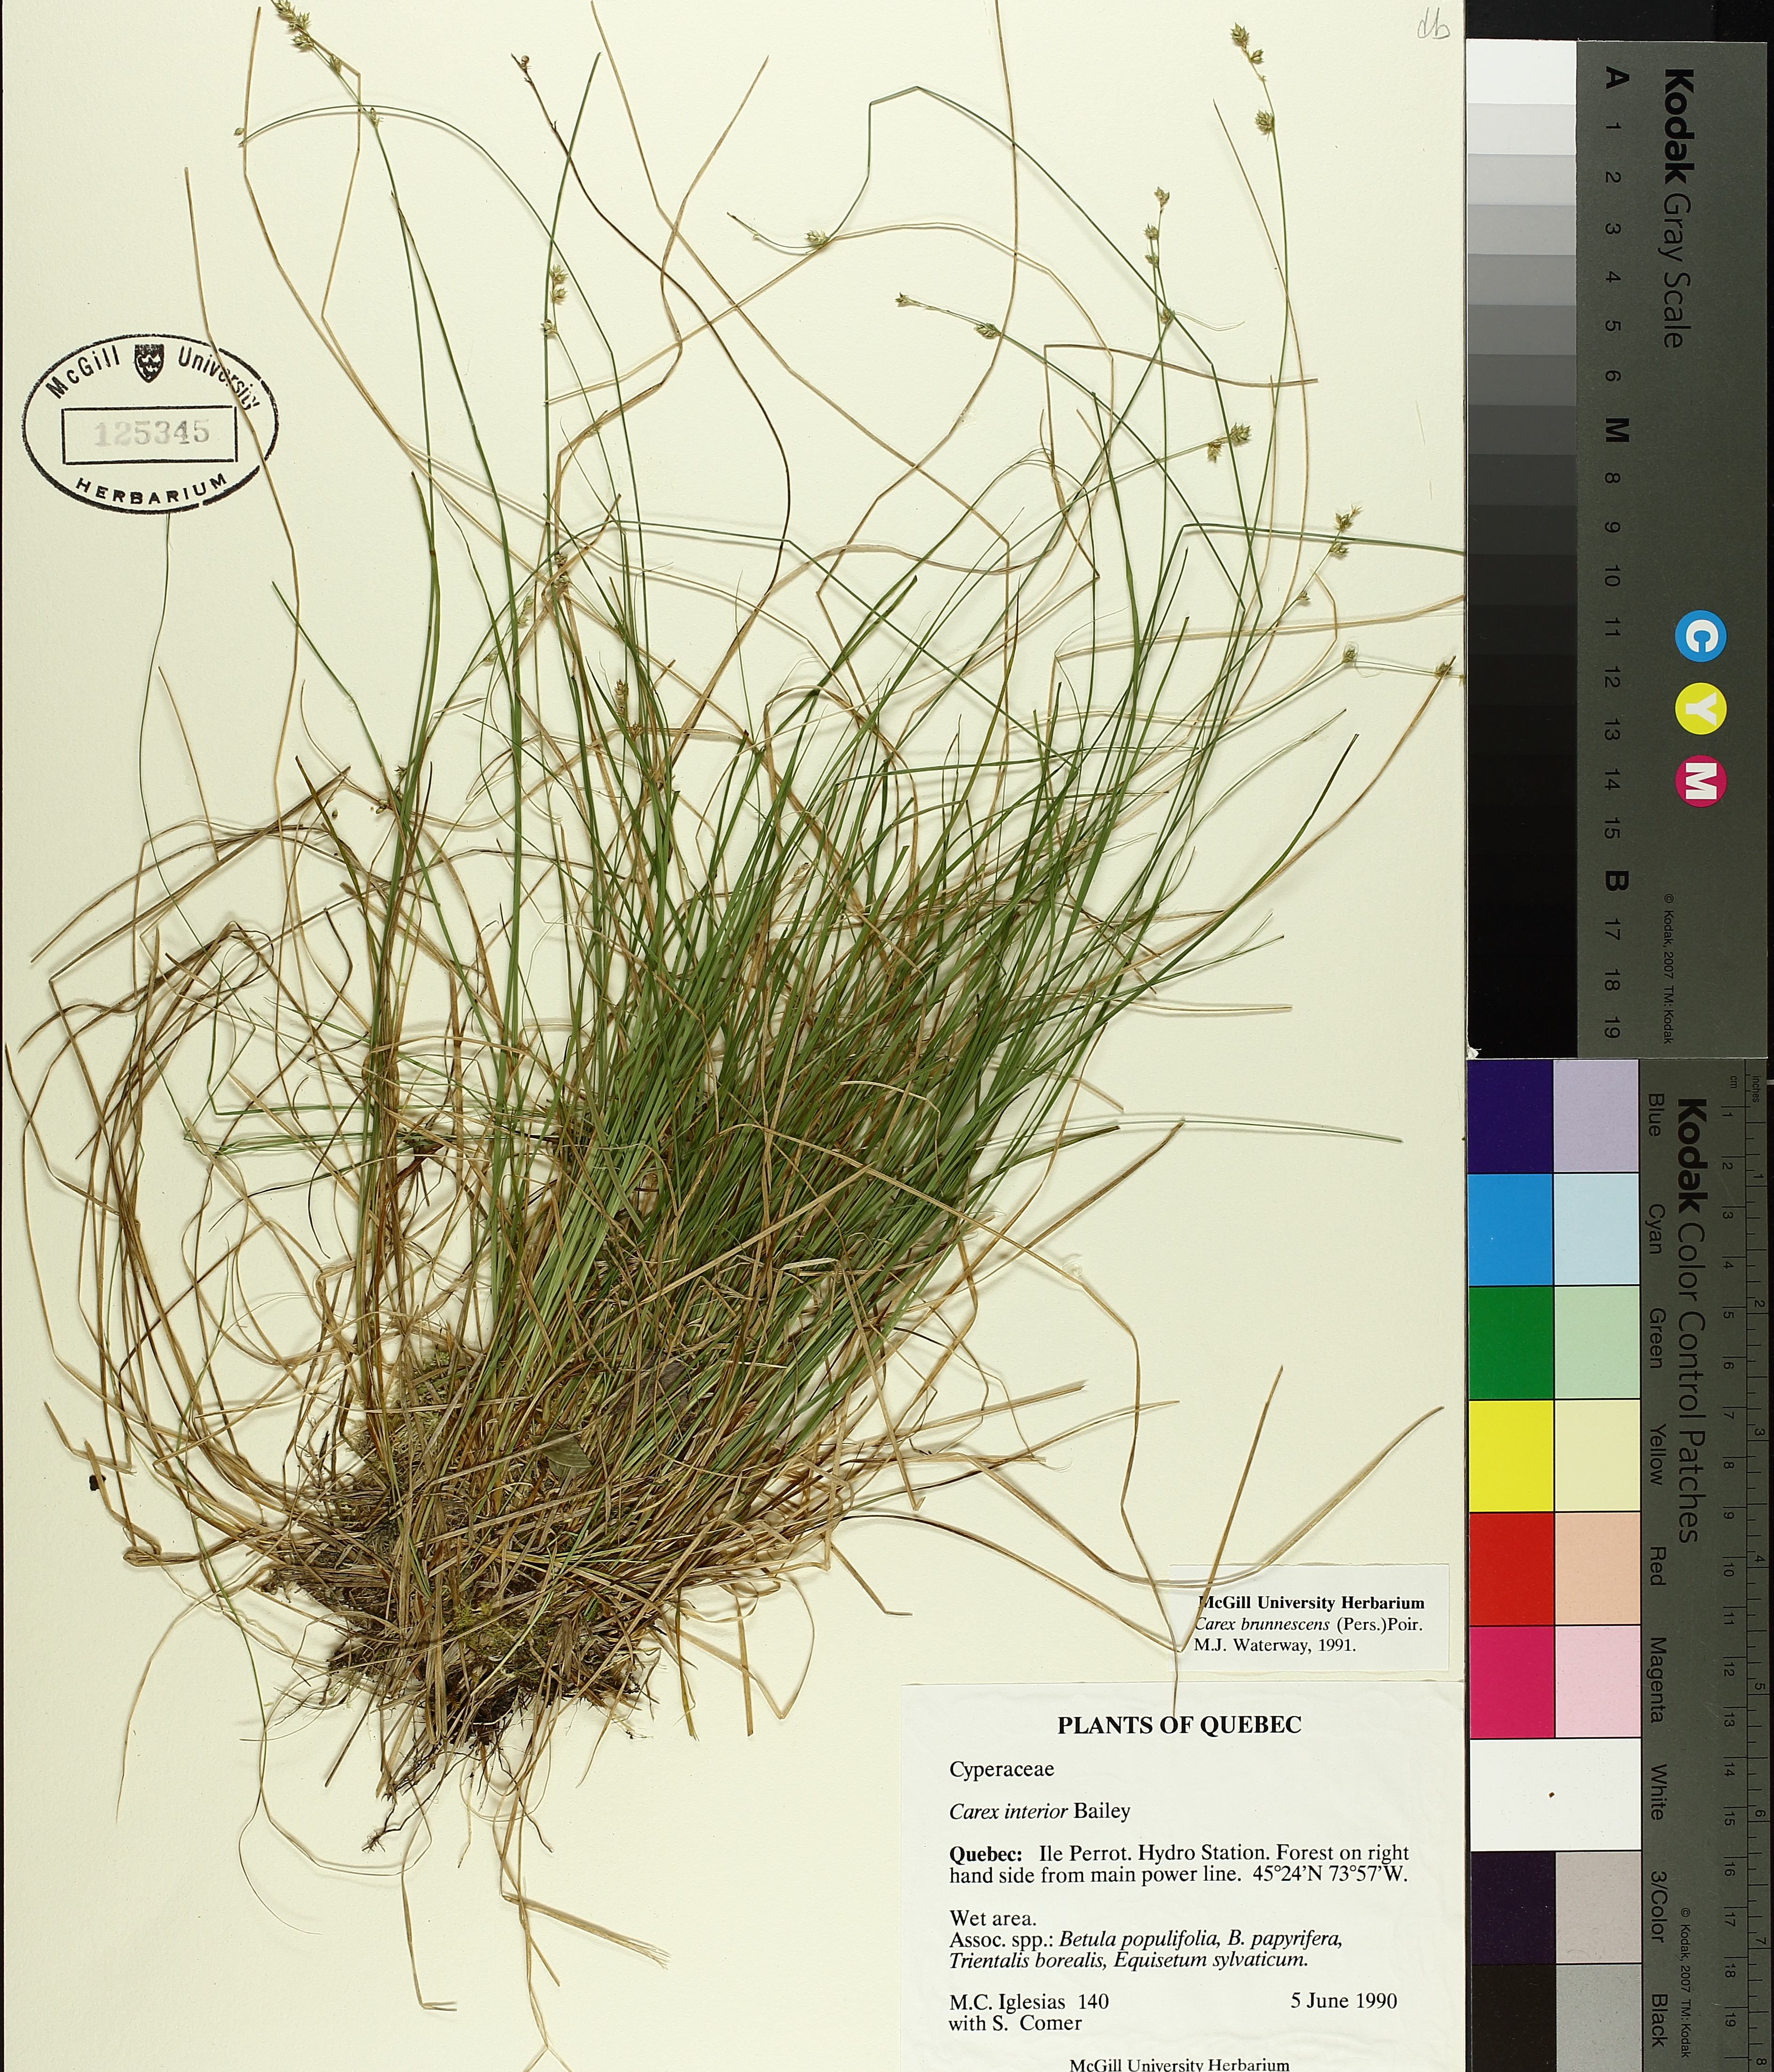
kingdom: Plantae
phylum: Tracheophyta
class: Liliopsida
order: Poales
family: Cyperaceae
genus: Carex
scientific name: Carex brunnescens
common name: Brown sedge
